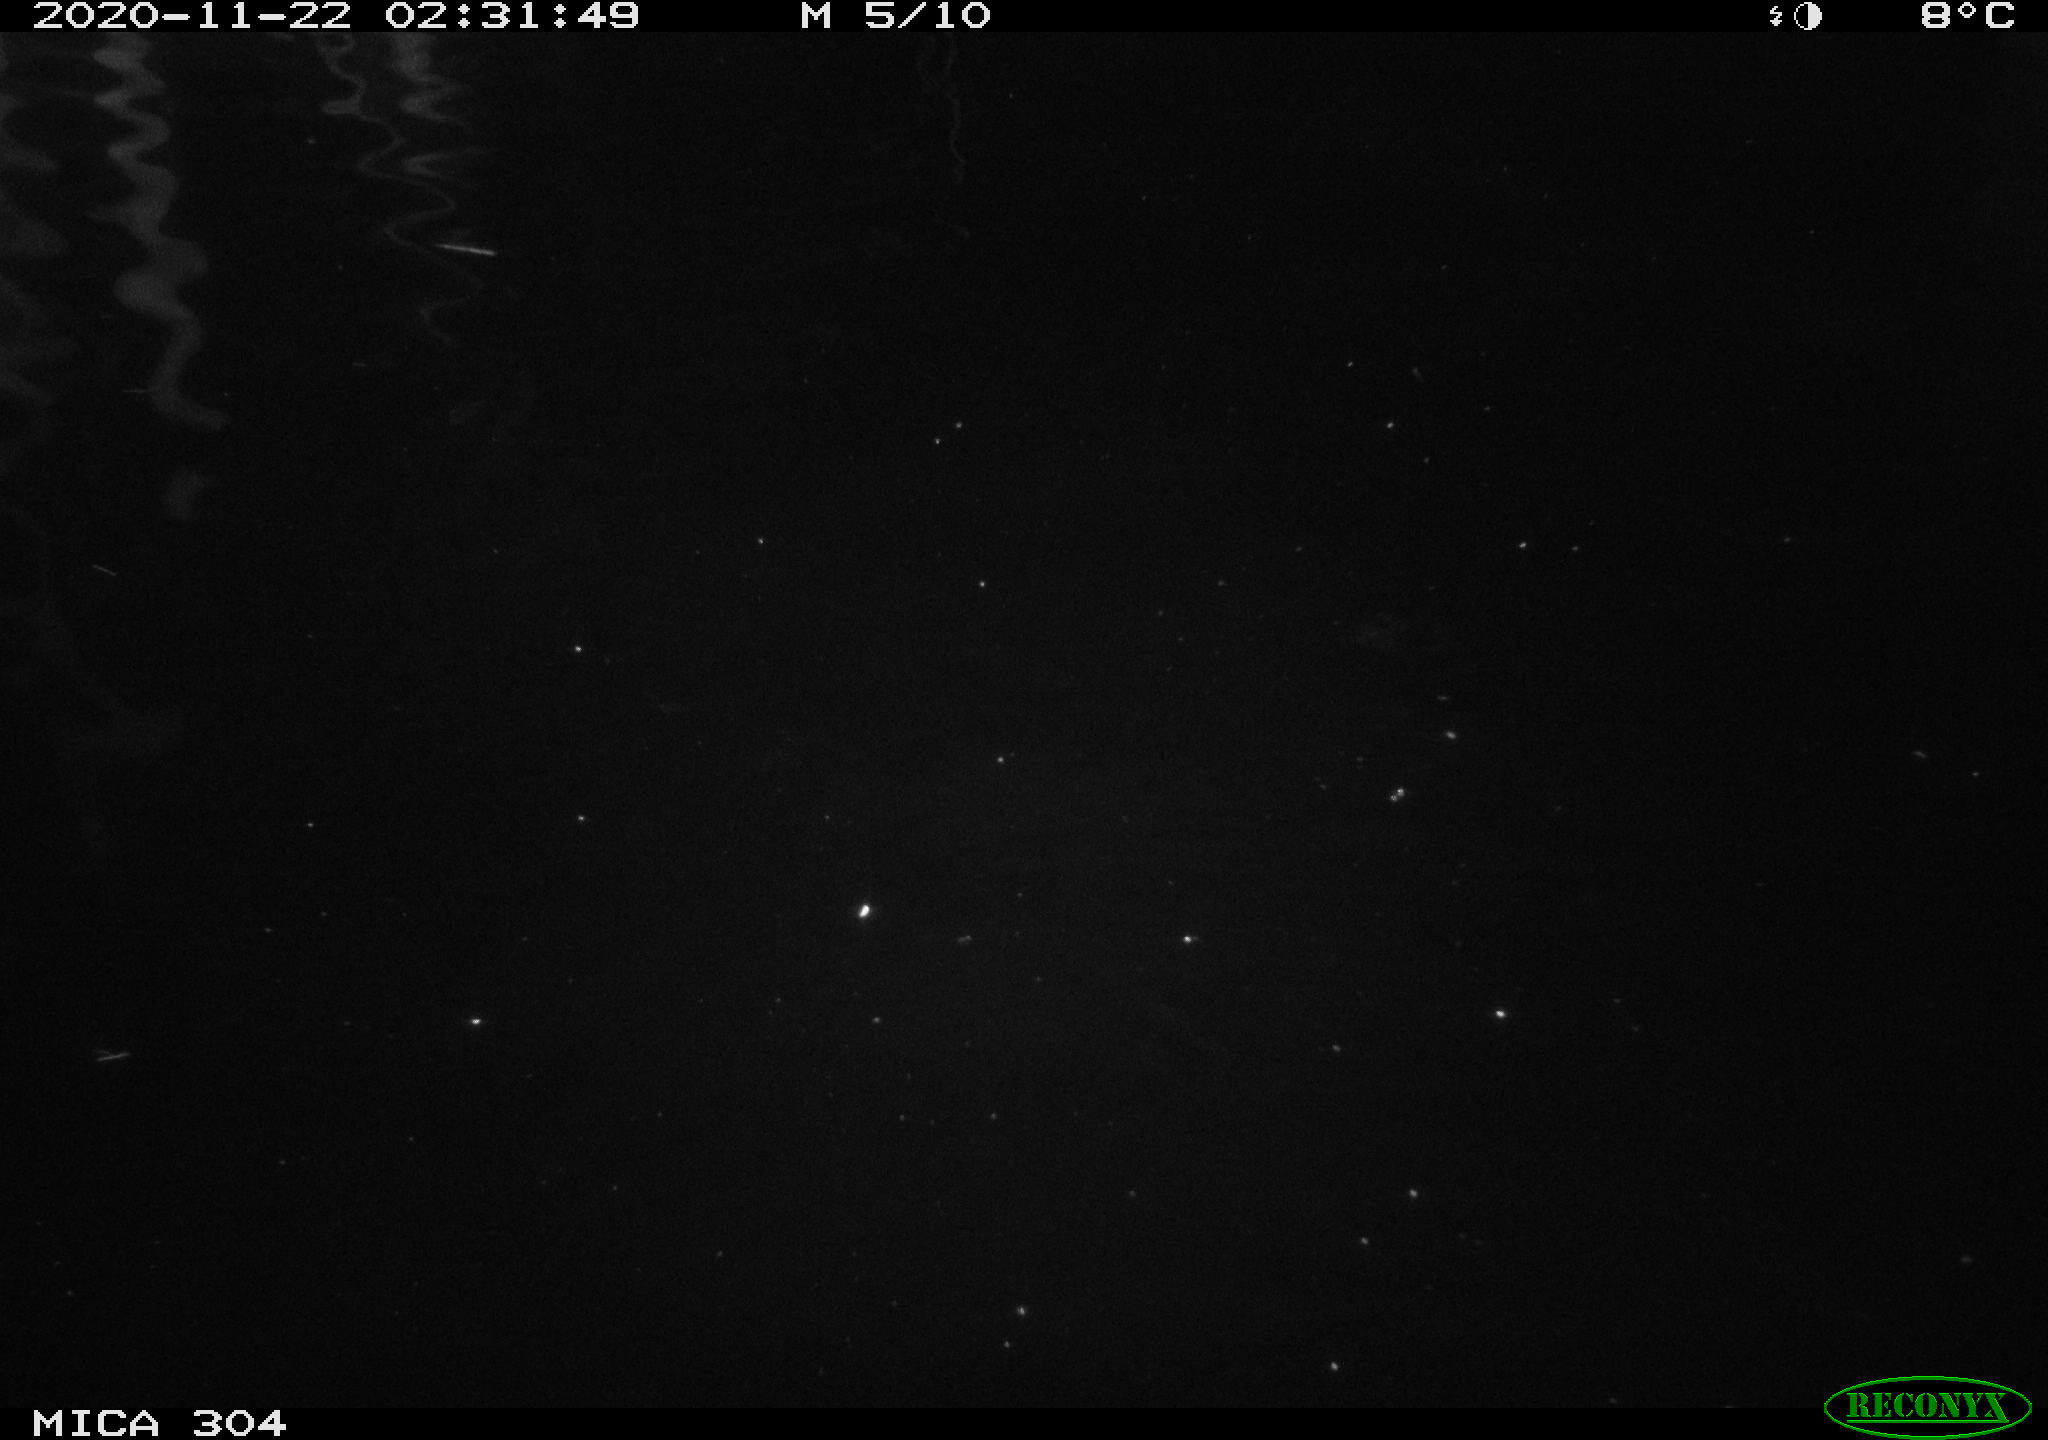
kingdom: Animalia
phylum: Chordata
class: Mammalia
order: Rodentia
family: Cricetidae
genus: Ondatra
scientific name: Ondatra zibethicus
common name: Muskrat
